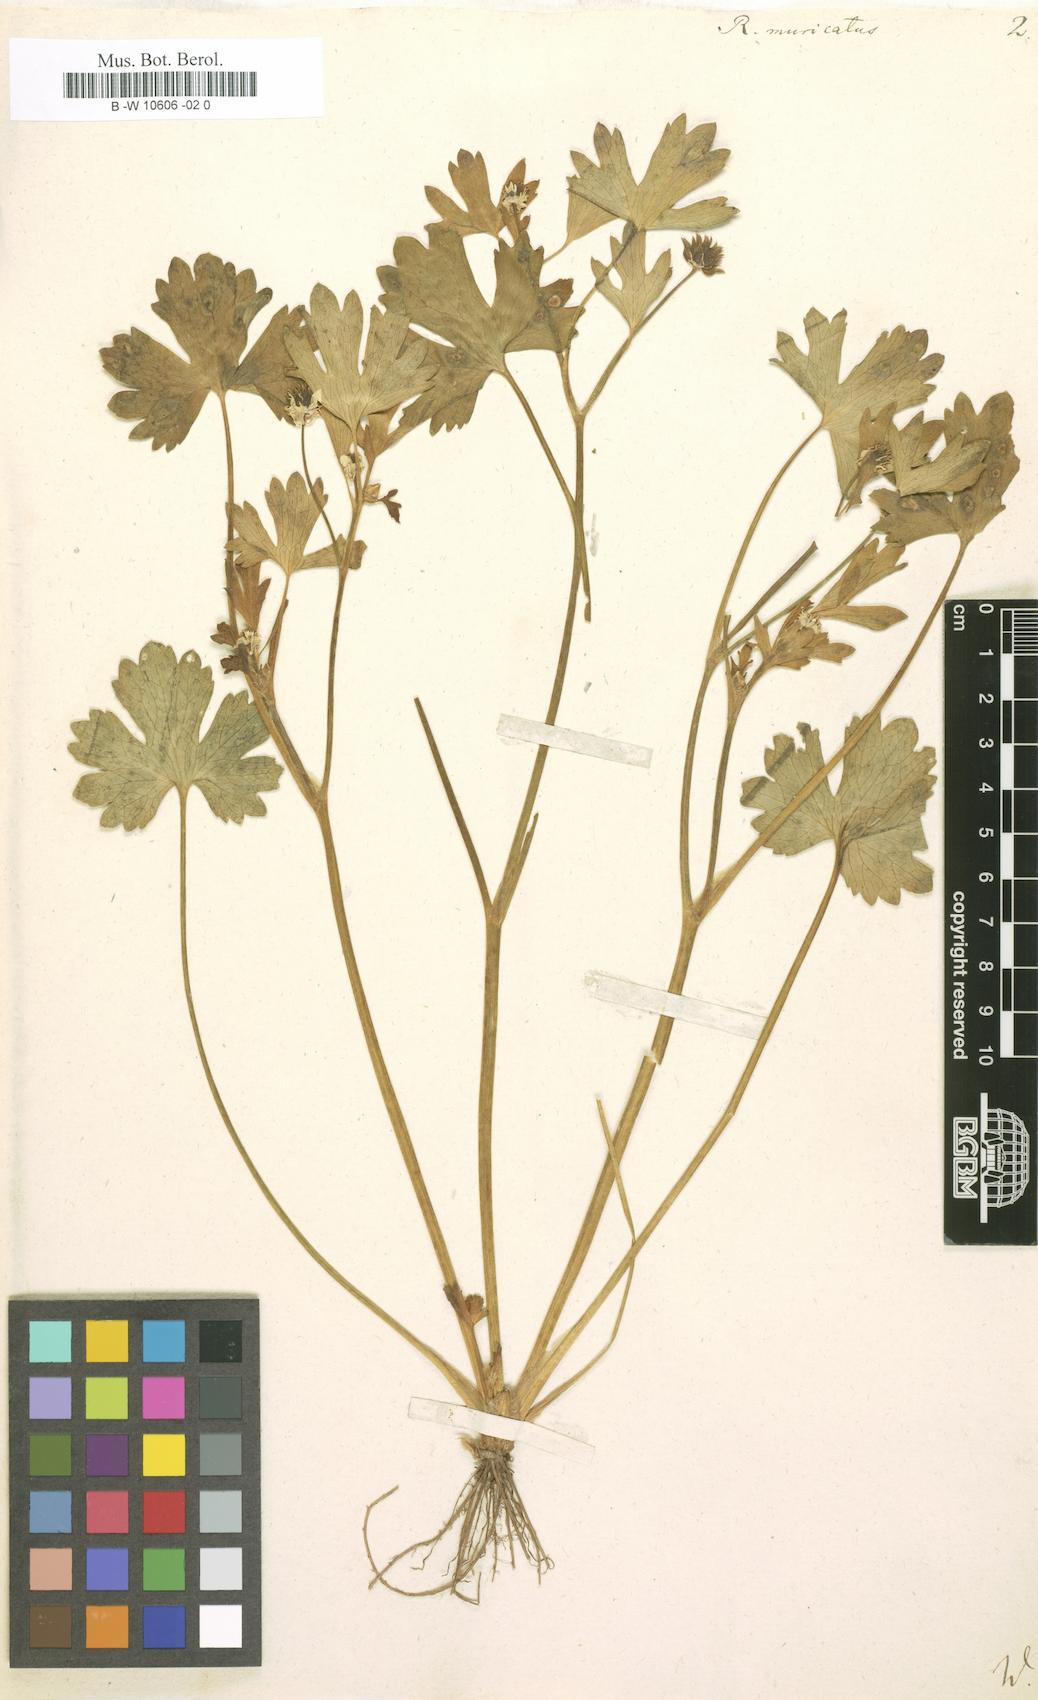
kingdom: Plantae
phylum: Tracheophyta
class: Magnoliopsida
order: Ranunculales
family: Ranunculaceae
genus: Ranunculus
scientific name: Ranunculus muricatus
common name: Rough-fruited buttercup
